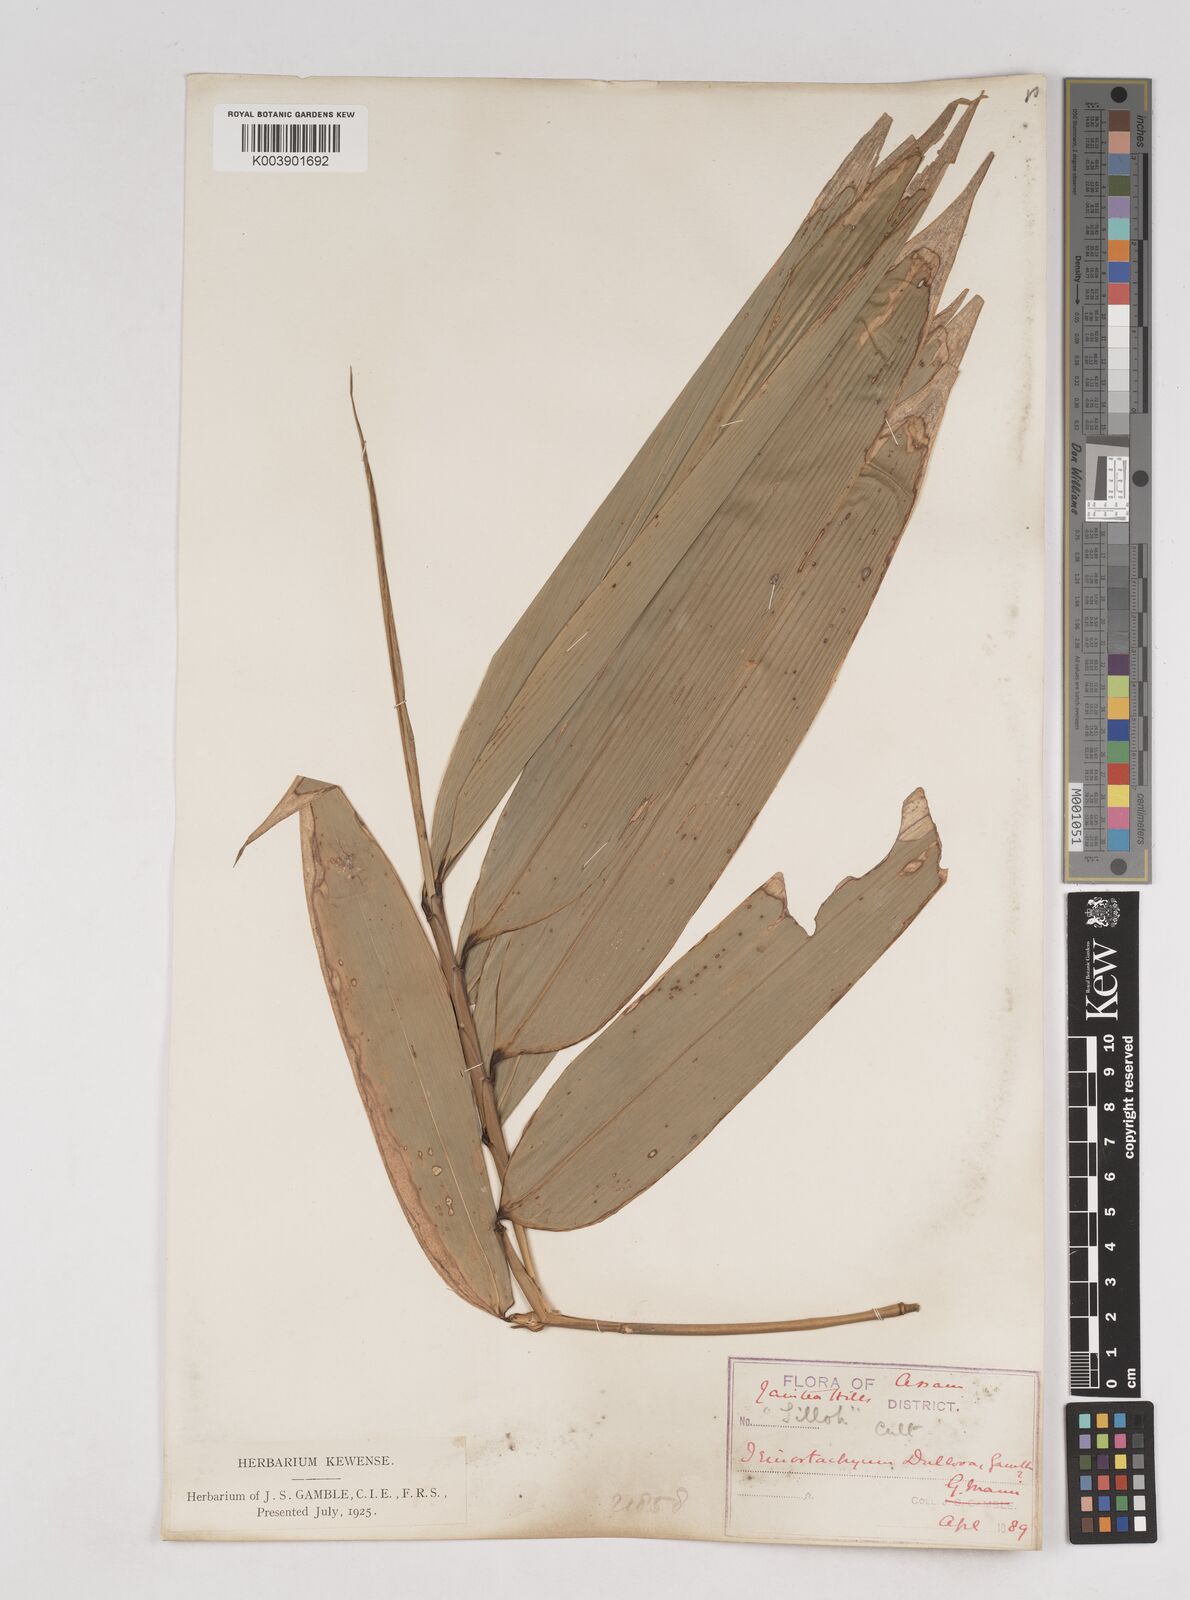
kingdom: Plantae
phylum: Tracheophyta
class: Liliopsida
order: Poales
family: Poaceae
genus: Schizostachyum
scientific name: Schizostachyum dullooa
